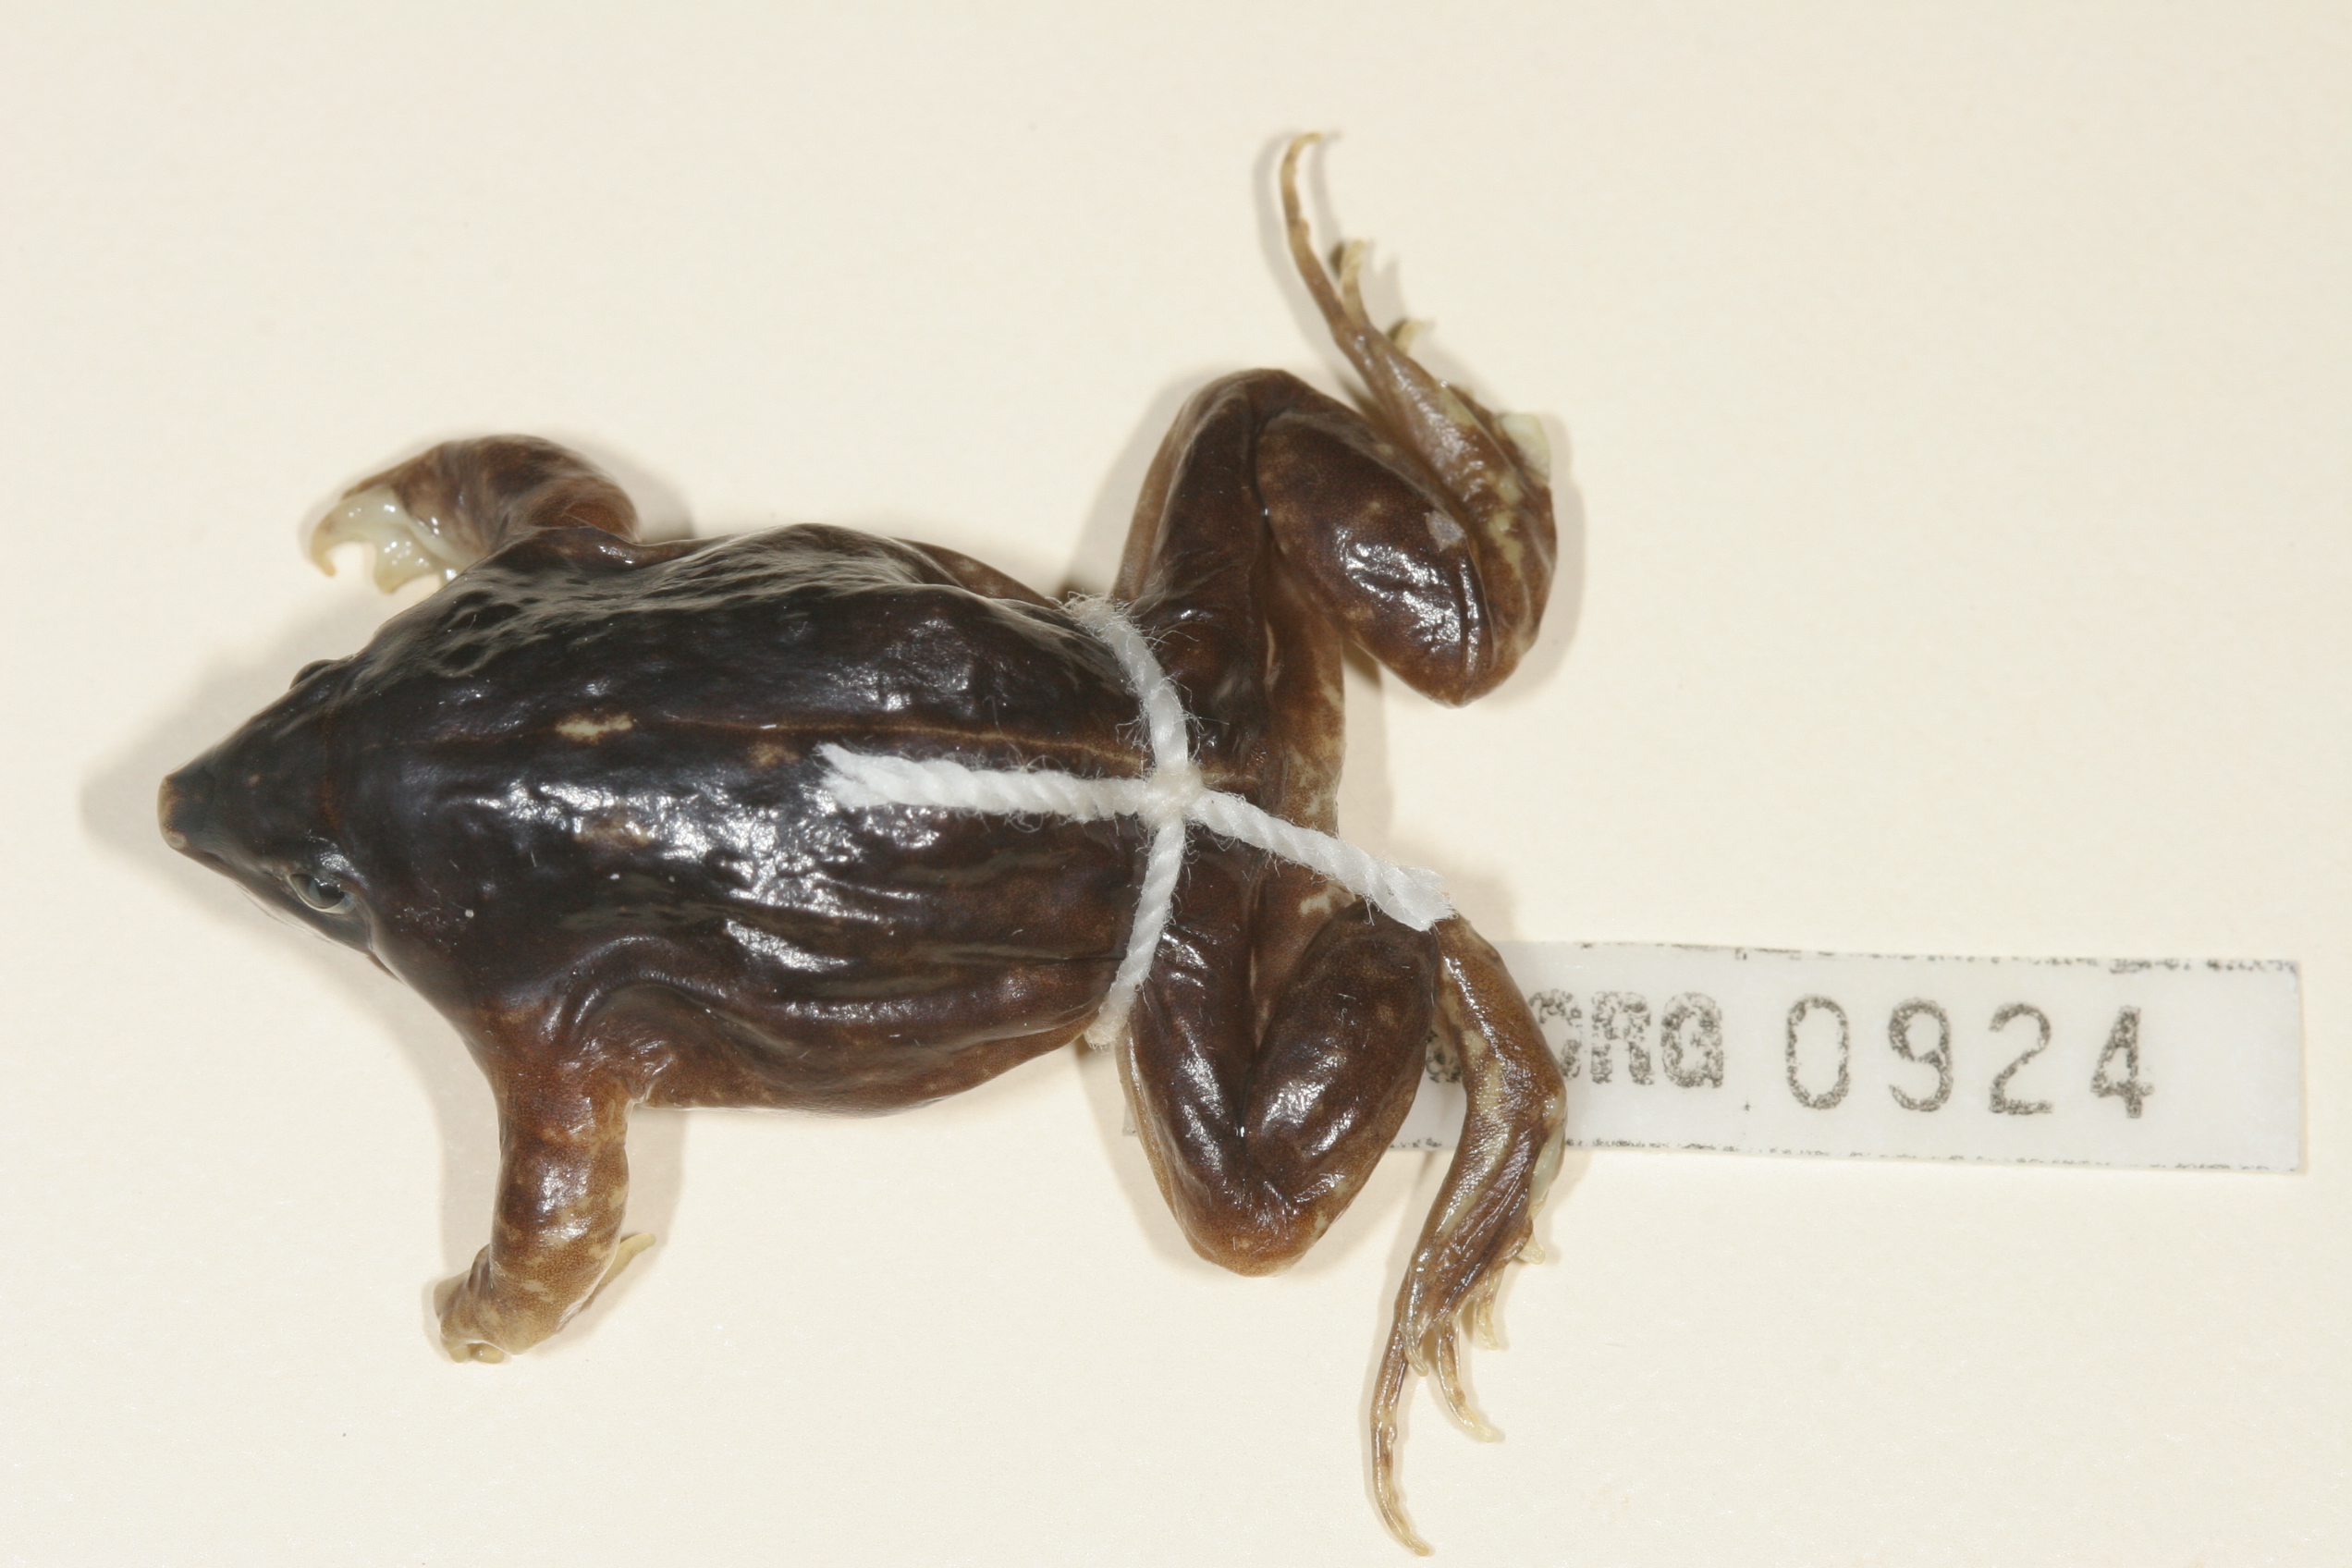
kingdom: Animalia
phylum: Chordata
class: Amphibia
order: Anura
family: Hemisotidae
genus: Hemisus
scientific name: Hemisus guineensis
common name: Guinea snout-burrower
